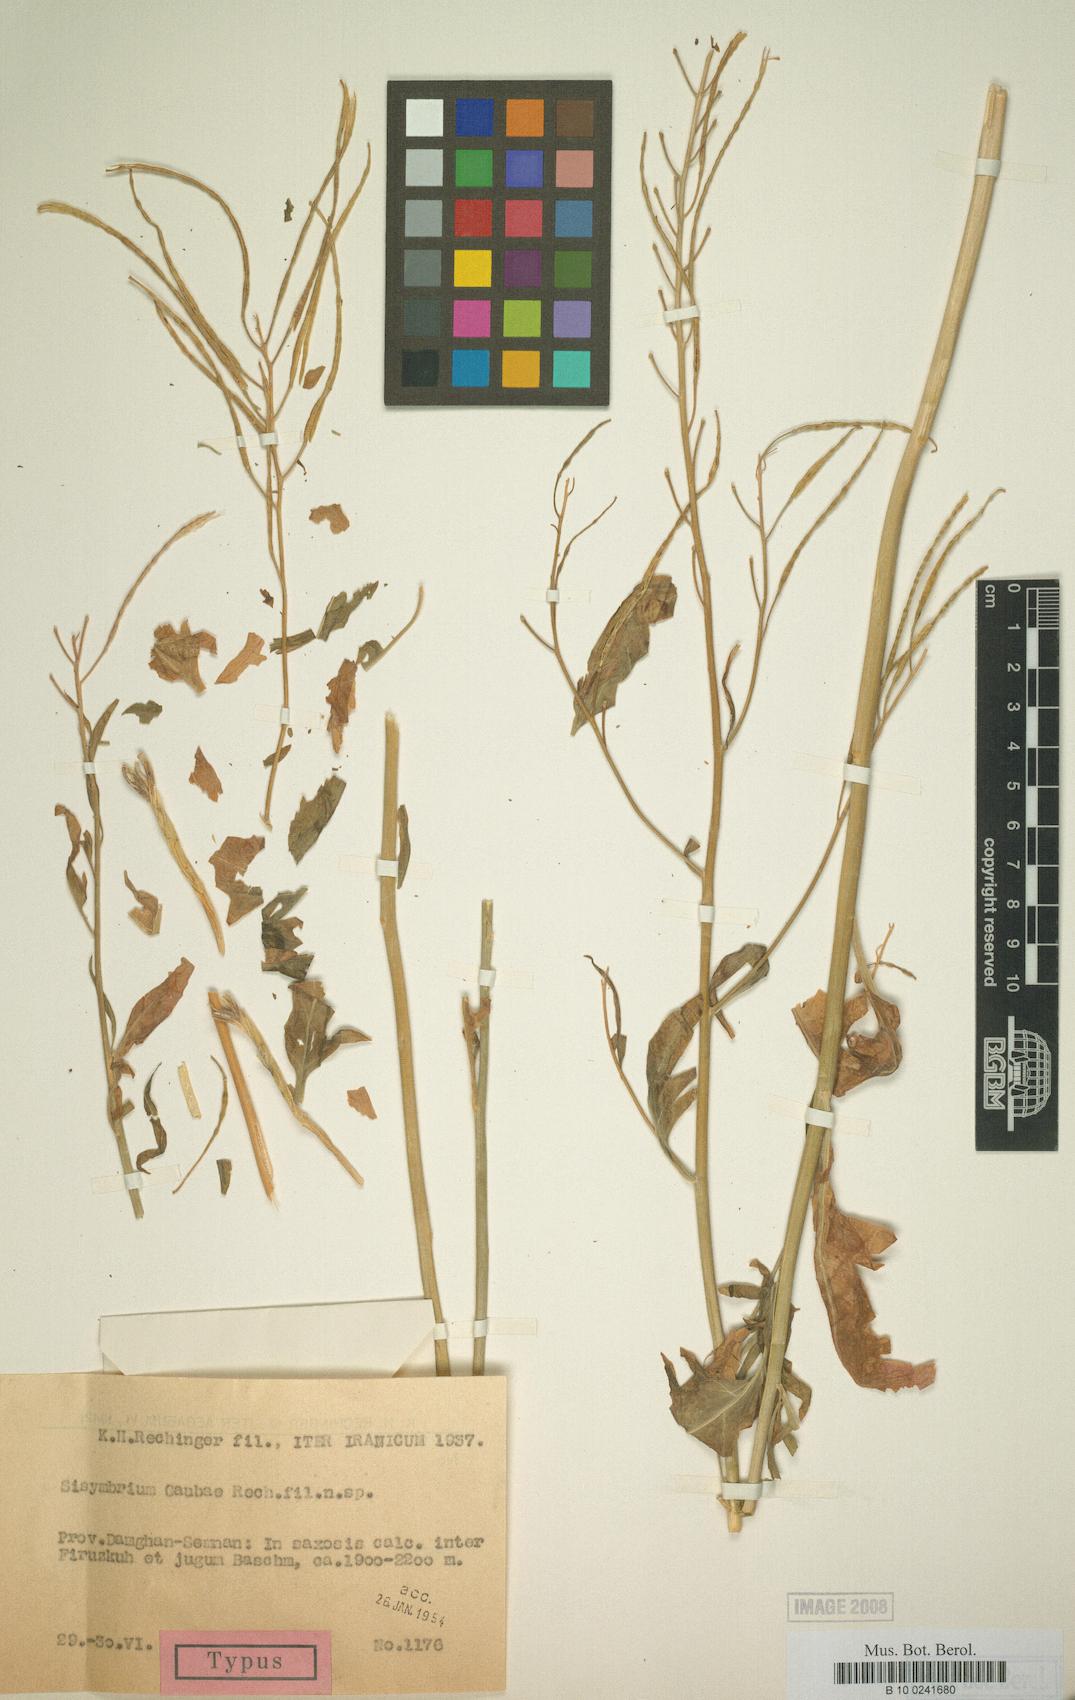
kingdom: Plantae
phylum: Tracheophyta
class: Magnoliopsida
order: Brassicales
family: Brassicaceae
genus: Sisymbrium
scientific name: Sisymbrium gaubae
